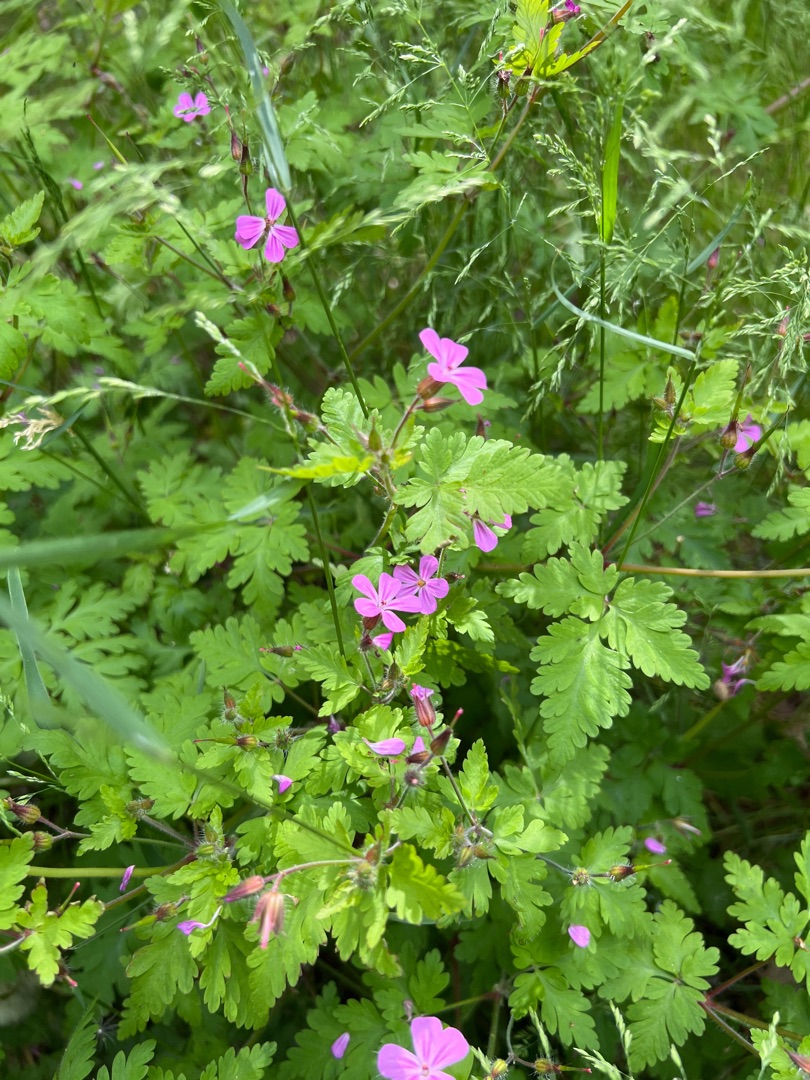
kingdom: Plantae
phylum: Tracheophyta
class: Magnoliopsida
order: Geraniales
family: Geraniaceae
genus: Geranium
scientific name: Geranium robertianum
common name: Stinkende storkenæb
